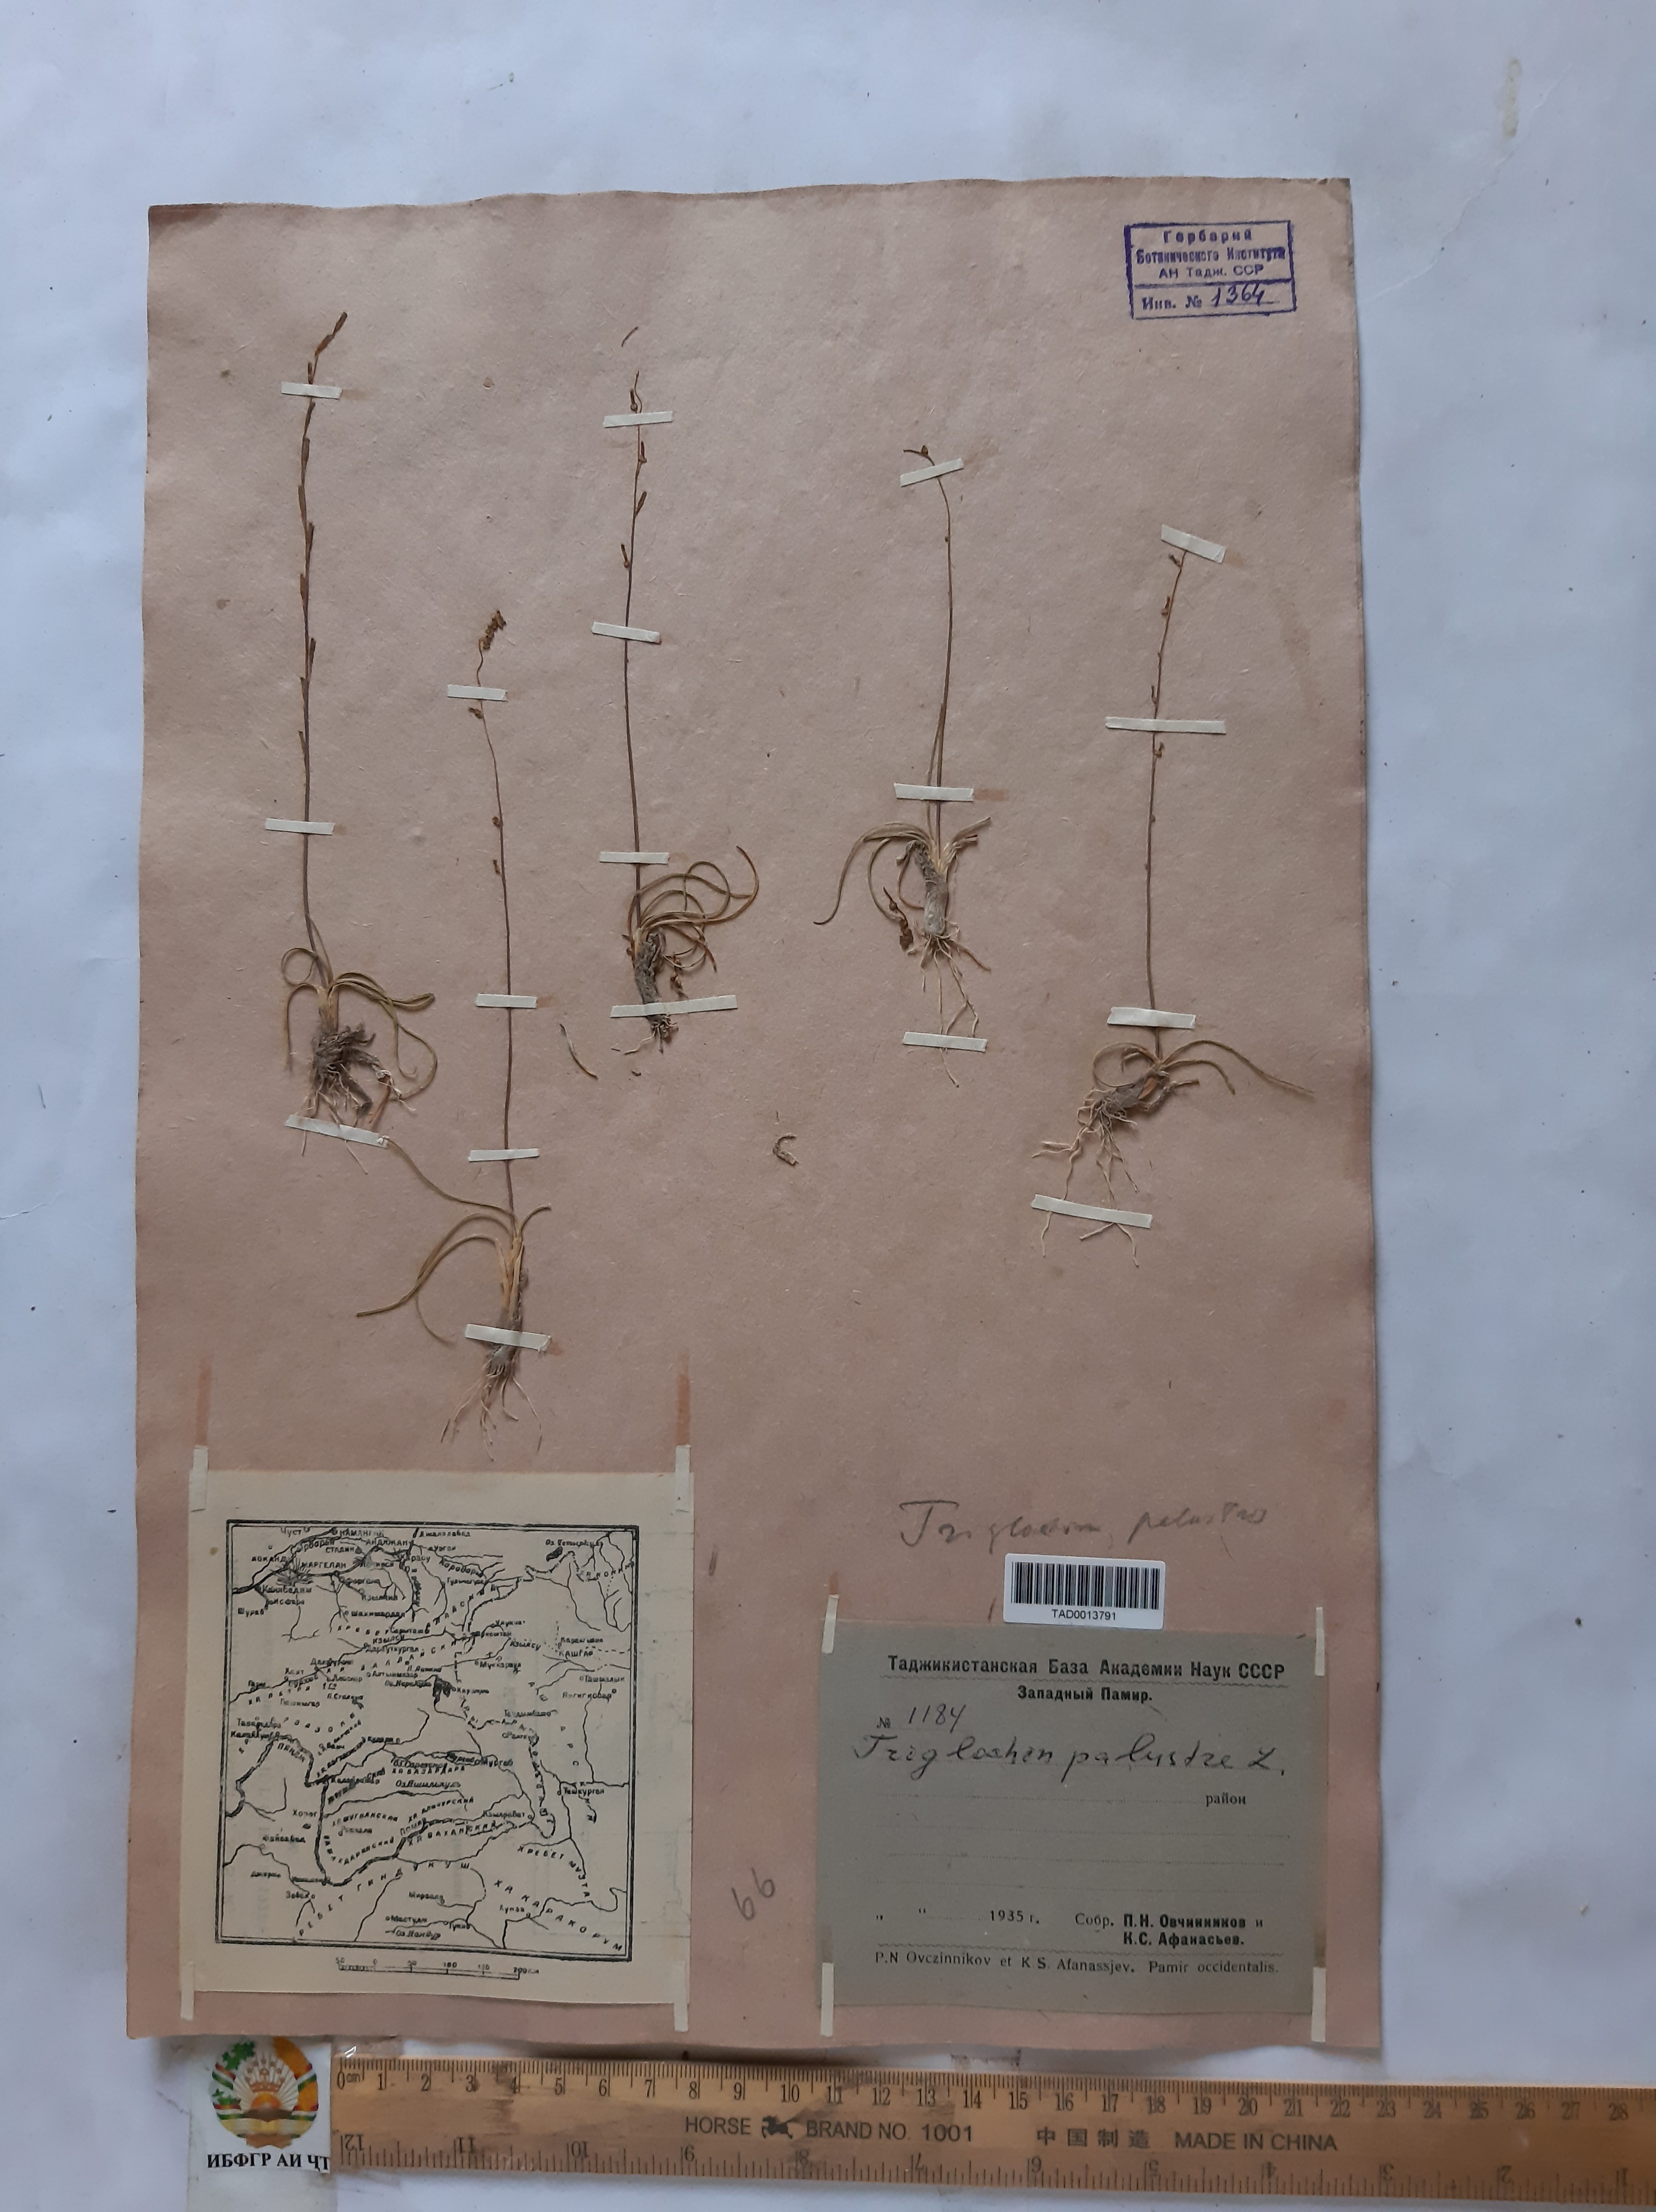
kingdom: Plantae
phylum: Tracheophyta
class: Liliopsida
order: Alismatales
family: Juncaginaceae
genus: Triglochin
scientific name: Triglochin palustris
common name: Marsh arrowgrass
